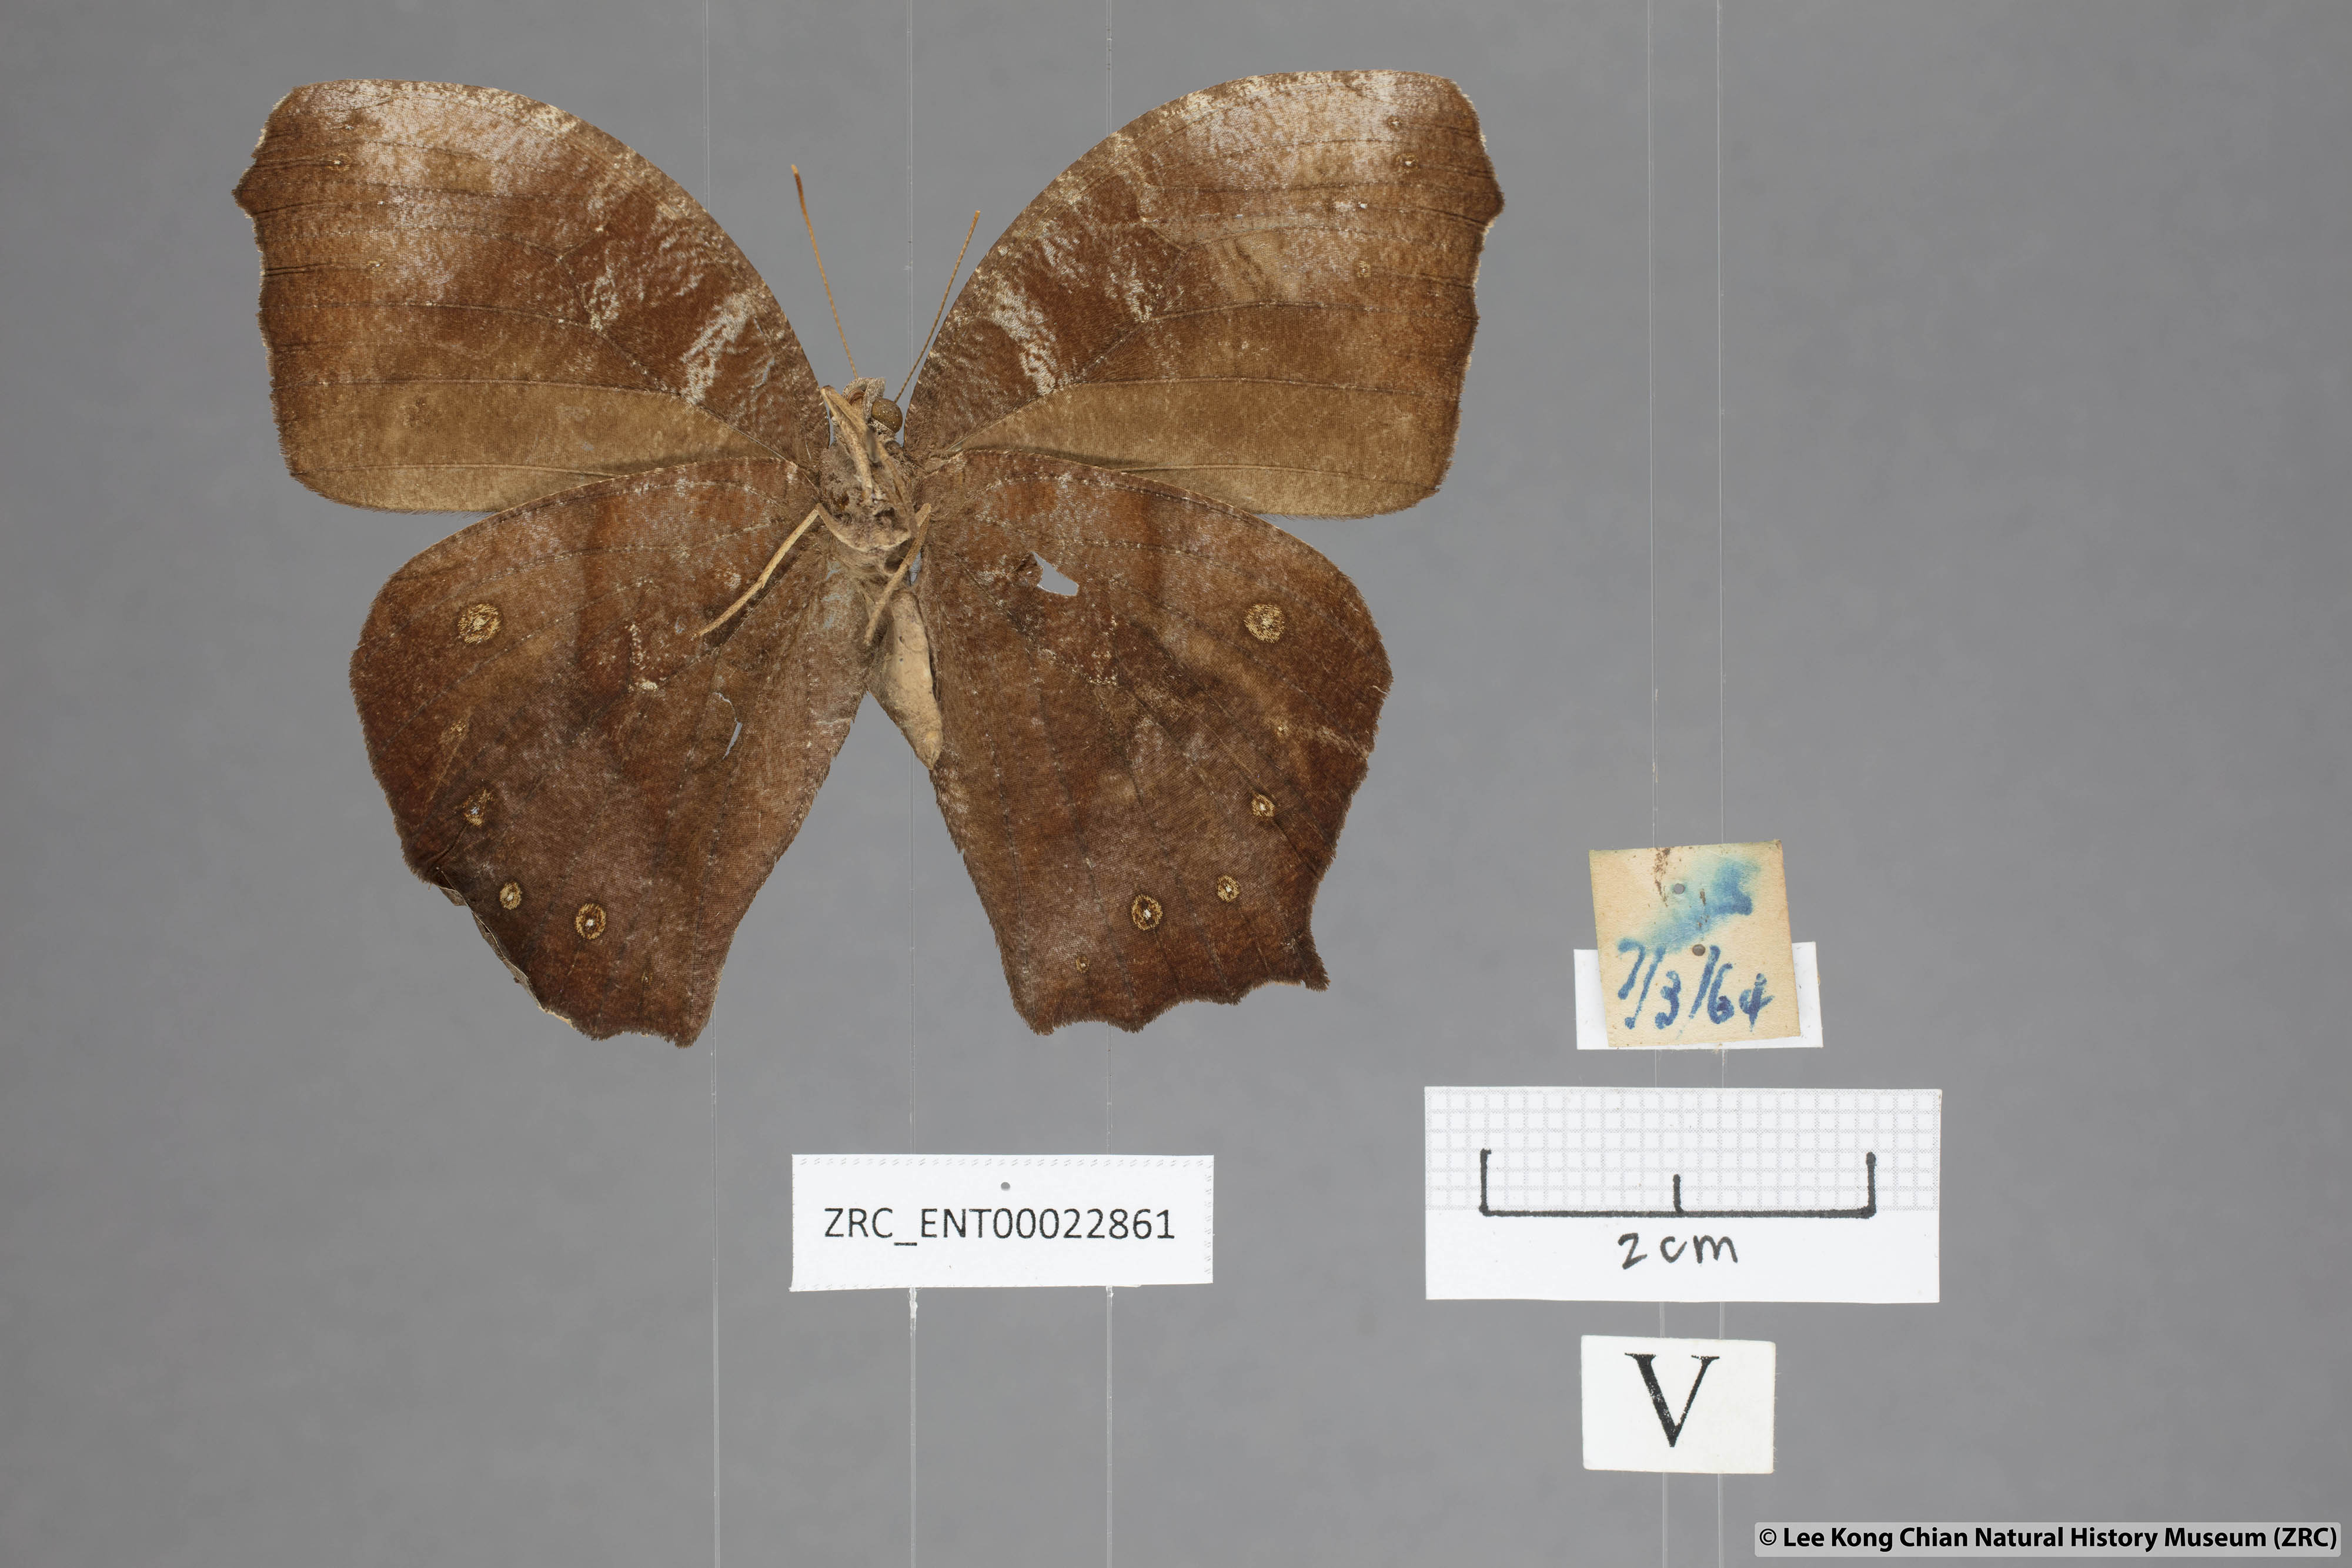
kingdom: Animalia
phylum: Arthropoda
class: Insecta
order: Lepidoptera
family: Nymphalidae
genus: Melanitis
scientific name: Melanitis phedima
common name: Dark evening brown
